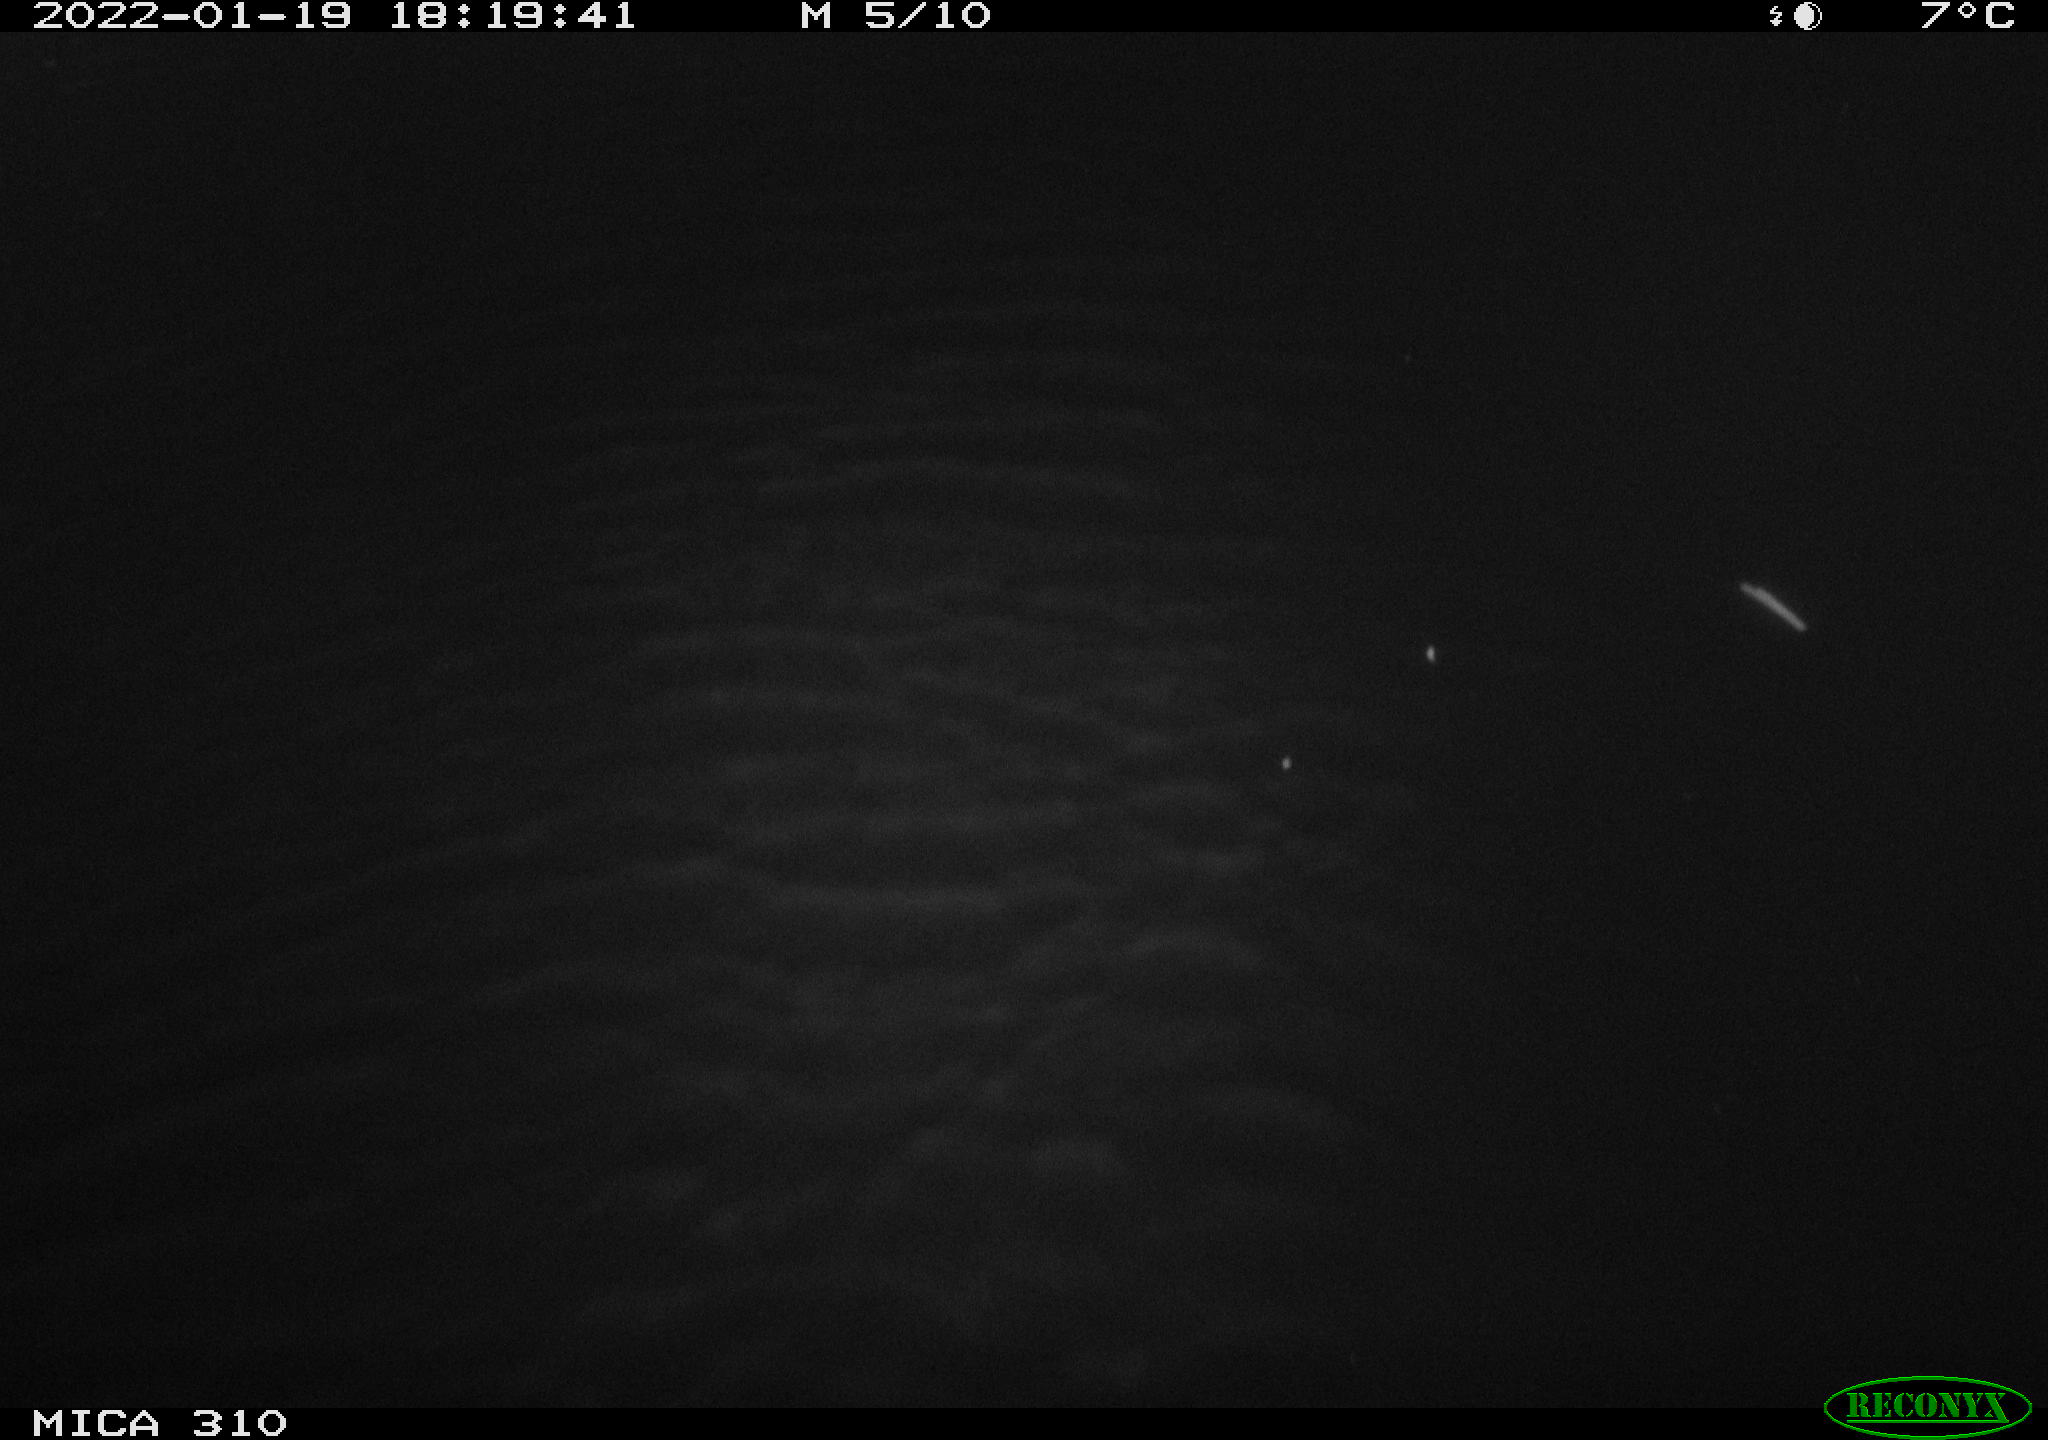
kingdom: Animalia
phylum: Chordata
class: Mammalia
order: Rodentia
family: Muridae
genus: Rattus
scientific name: Rattus norvegicus
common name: Brown rat
